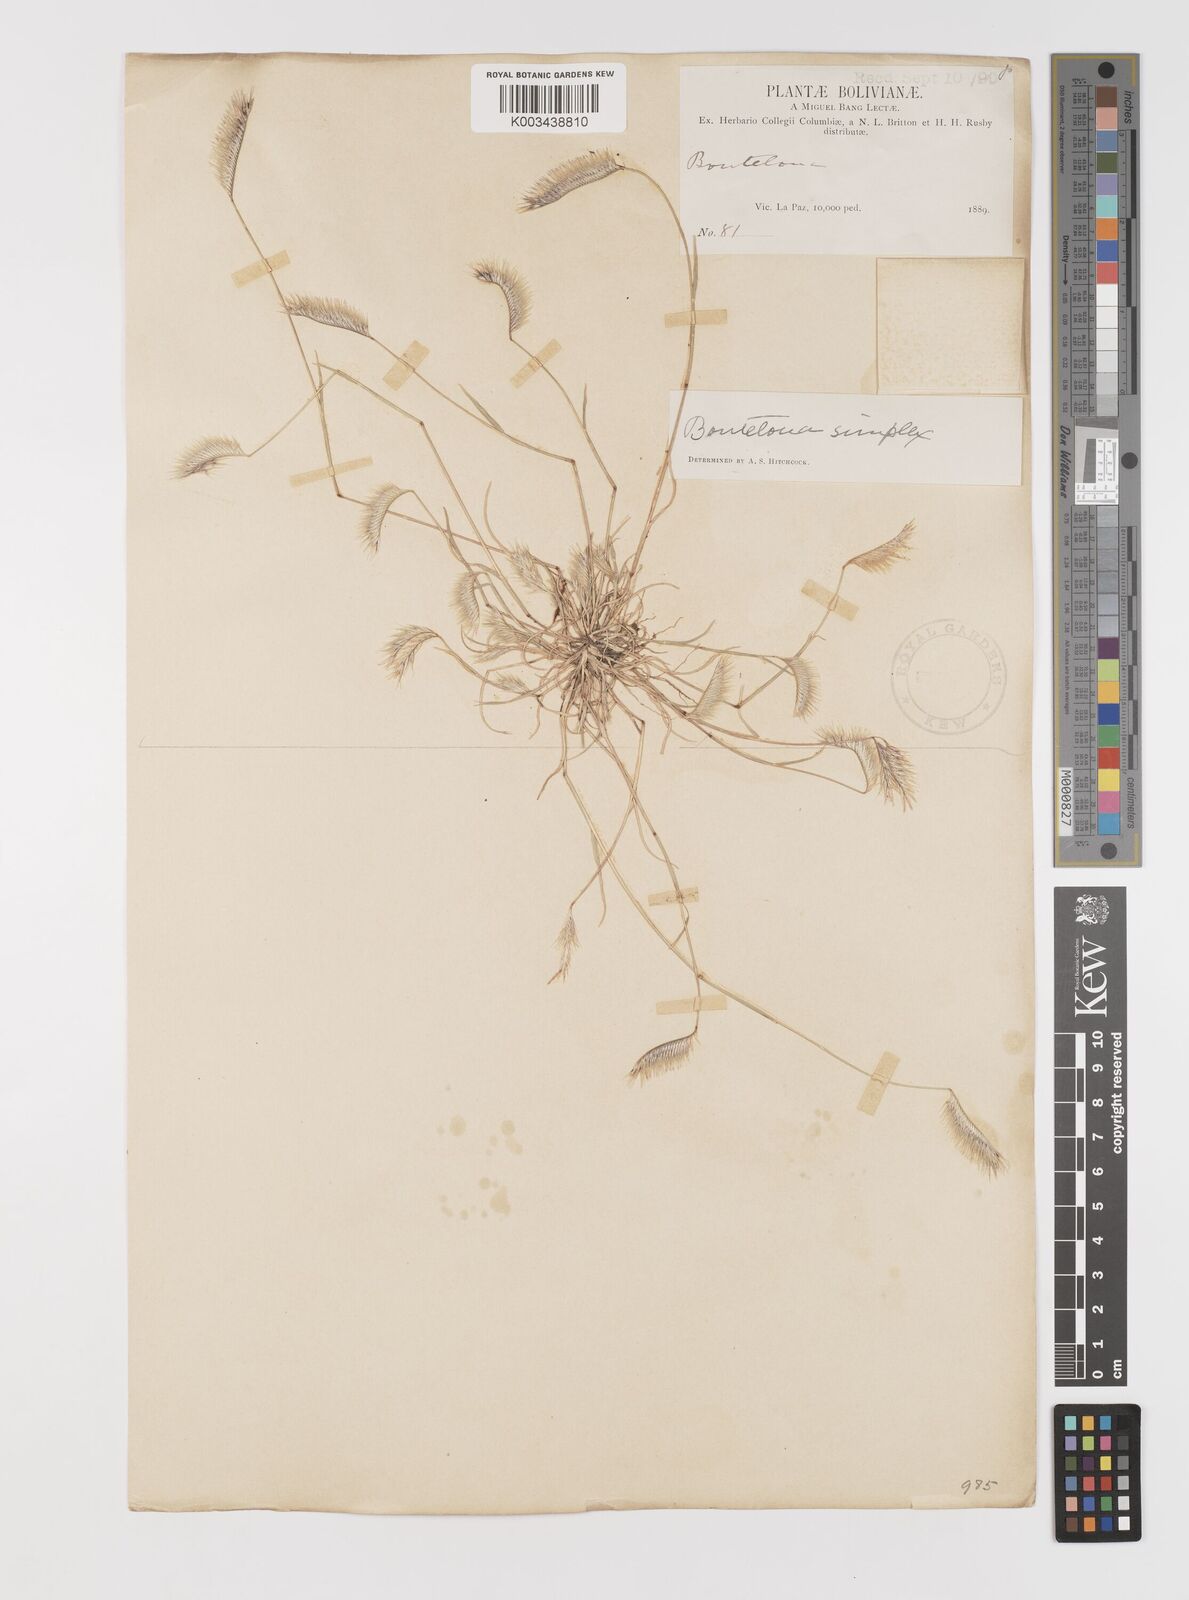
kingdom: Plantae
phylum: Tracheophyta
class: Liliopsida
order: Poales
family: Poaceae
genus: Bouteloua
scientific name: Bouteloua simplex
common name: Mat grama
